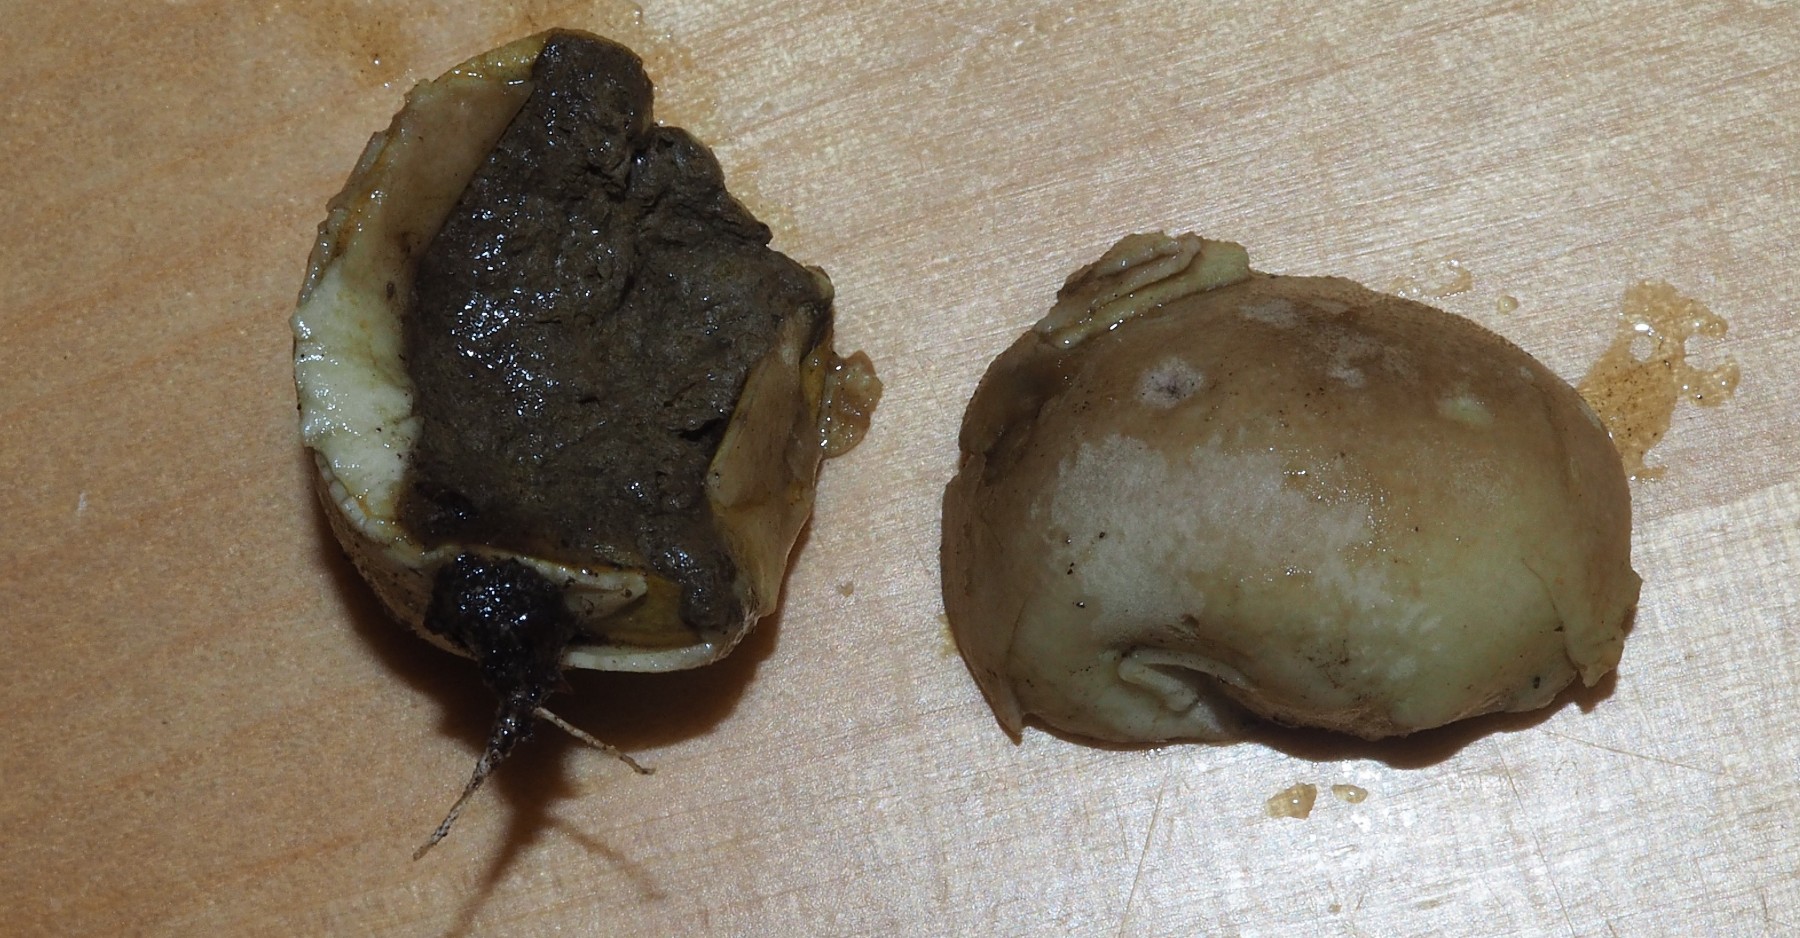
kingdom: Fungi
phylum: Basidiomycota
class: Agaricomycetes
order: Agaricales
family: Agaricaceae
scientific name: Agaricaceae
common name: champignonfamilien
